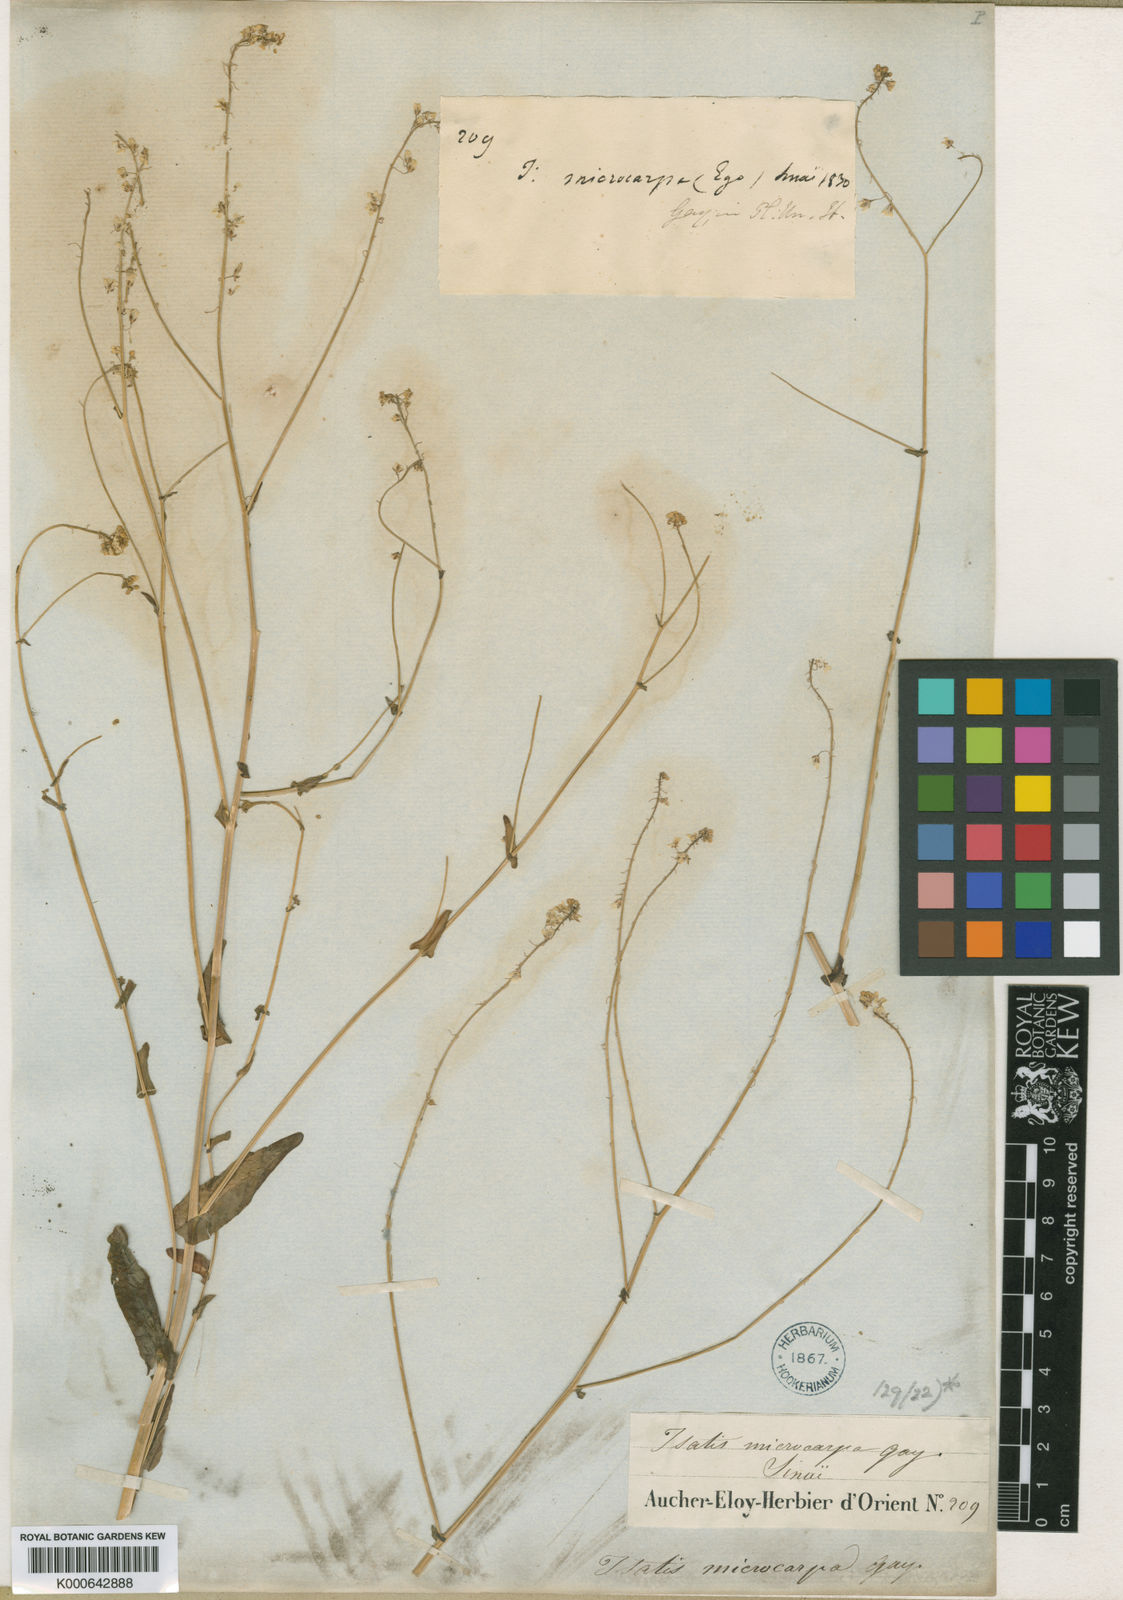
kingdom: Plantae
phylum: Tracheophyta
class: Magnoliopsida
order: Brassicales
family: Brassicaceae
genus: Isatis
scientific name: Isatis microcarpa
